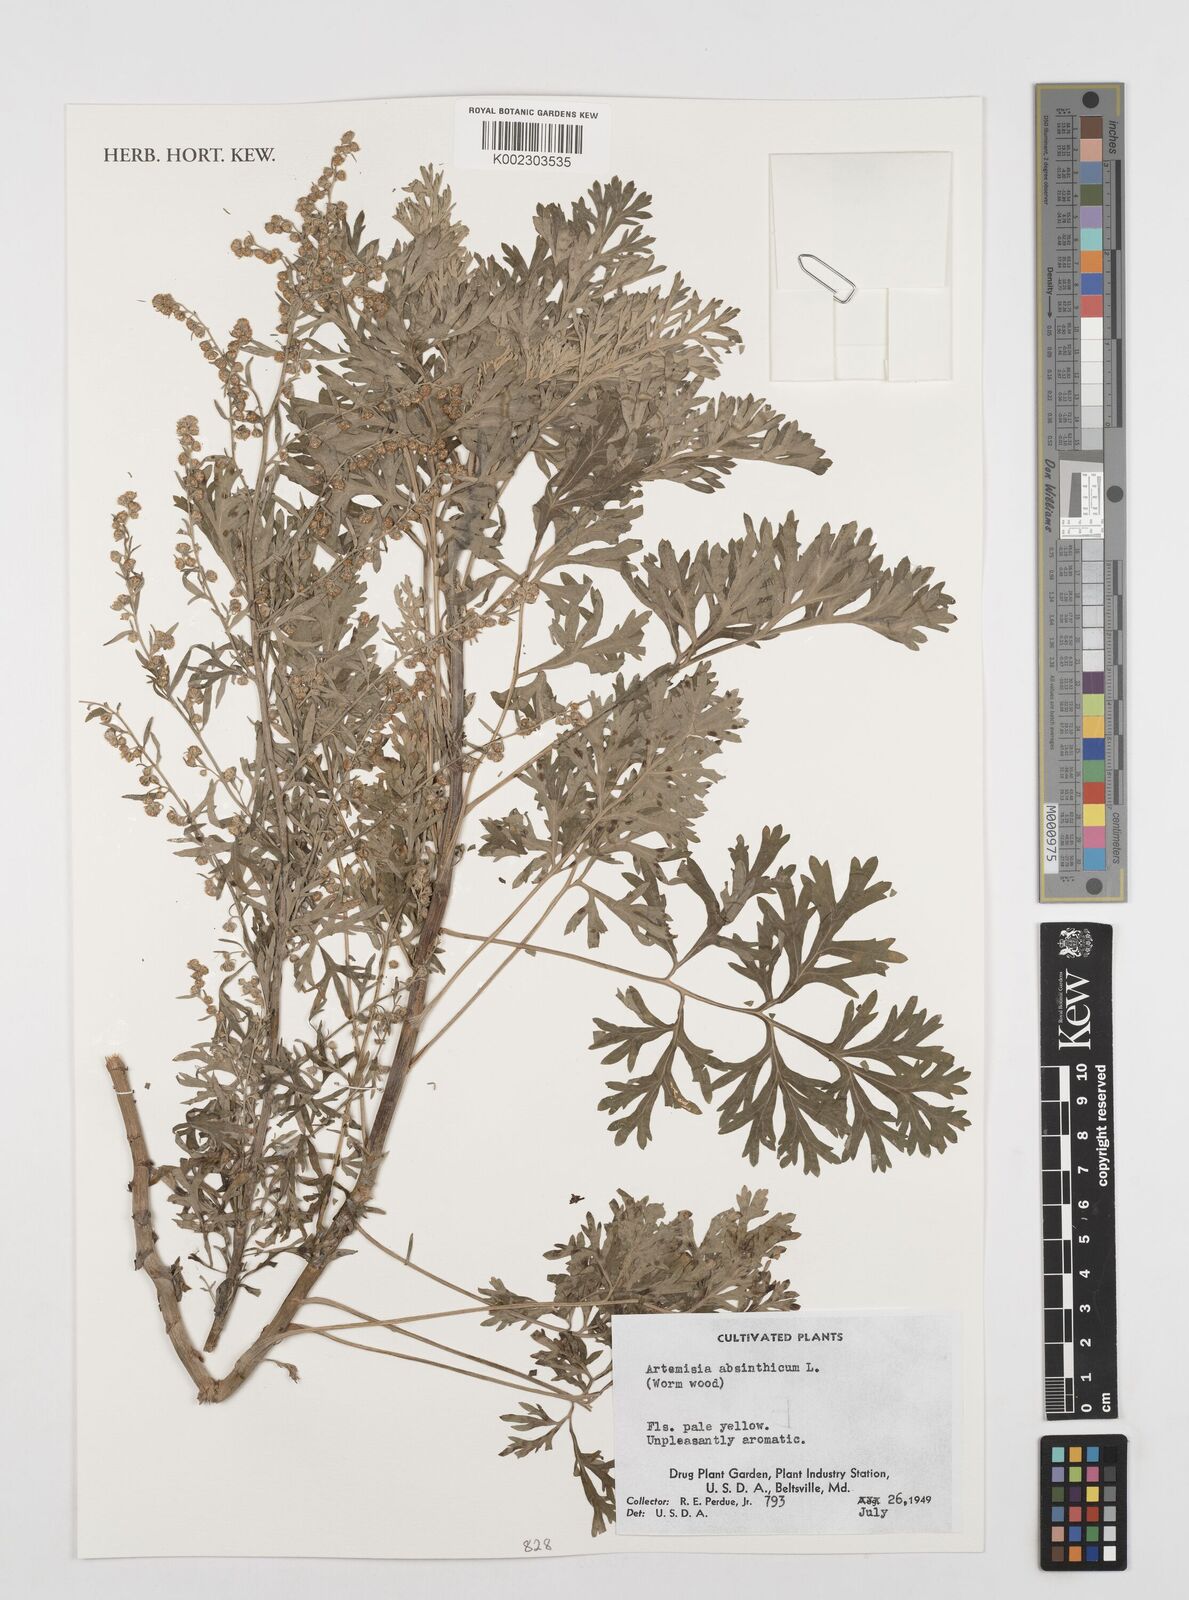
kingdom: Plantae
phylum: Tracheophyta
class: Magnoliopsida
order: Asterales
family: Asteraceae
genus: Artemisia
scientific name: Artemisia absinthium
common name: Wormwood
